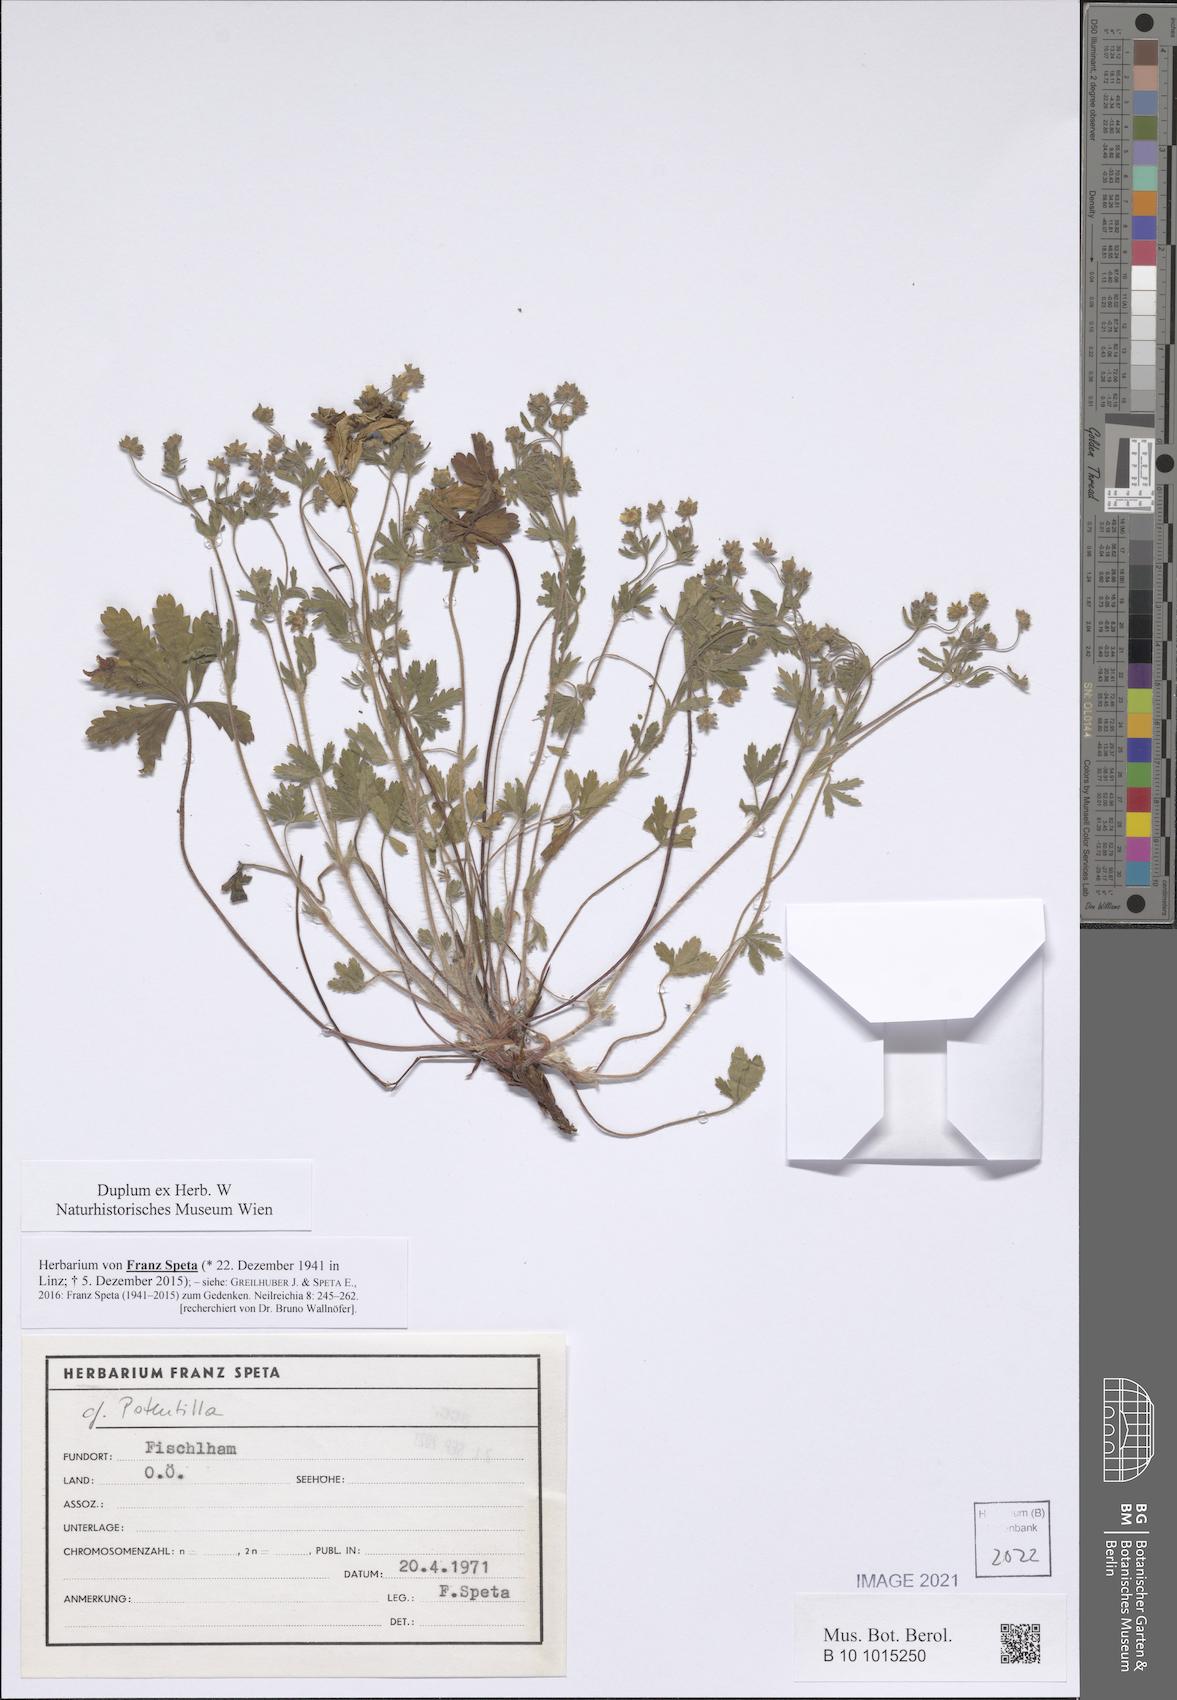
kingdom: Plantae
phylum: Tracheophyta
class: Magnoliopsida
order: Rosales
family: Rosaceae
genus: Potentilla
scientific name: Potentilla
